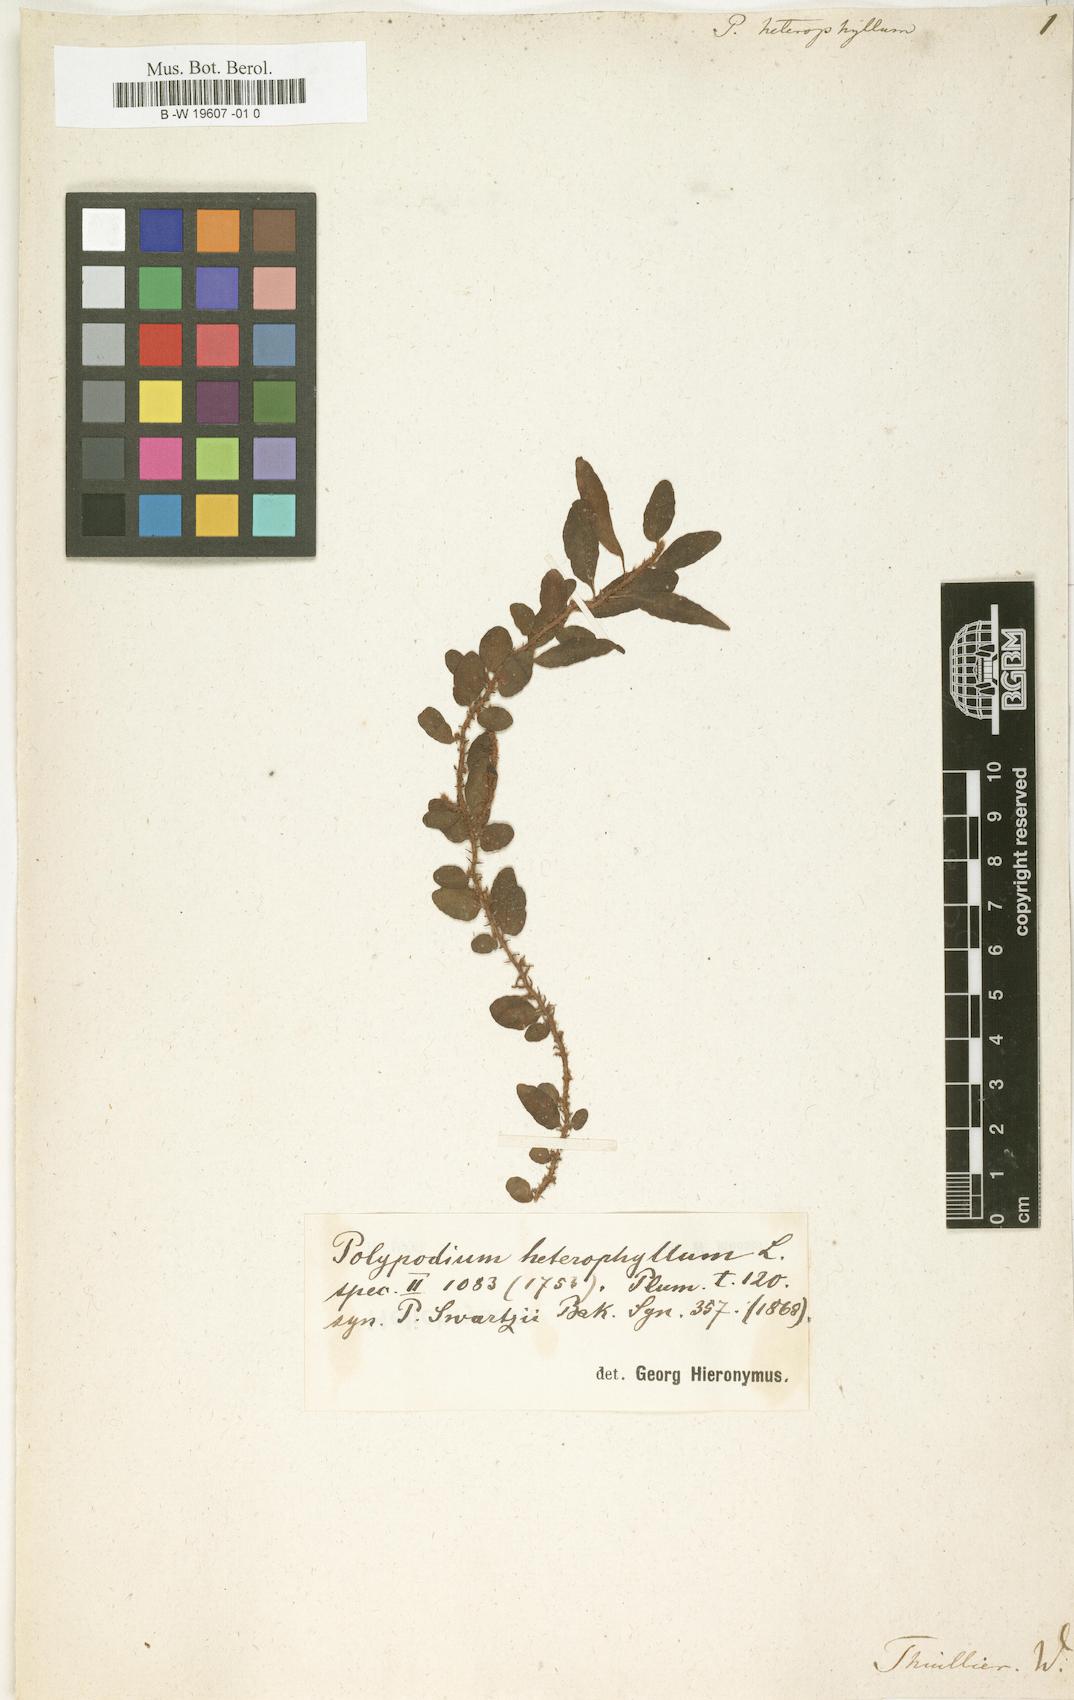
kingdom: Plantae
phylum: Tracheophyta
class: Polypodiopsida
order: Polypodiales
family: Polypodiaceae
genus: Polypodium
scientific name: Polypodium heterophyllum
